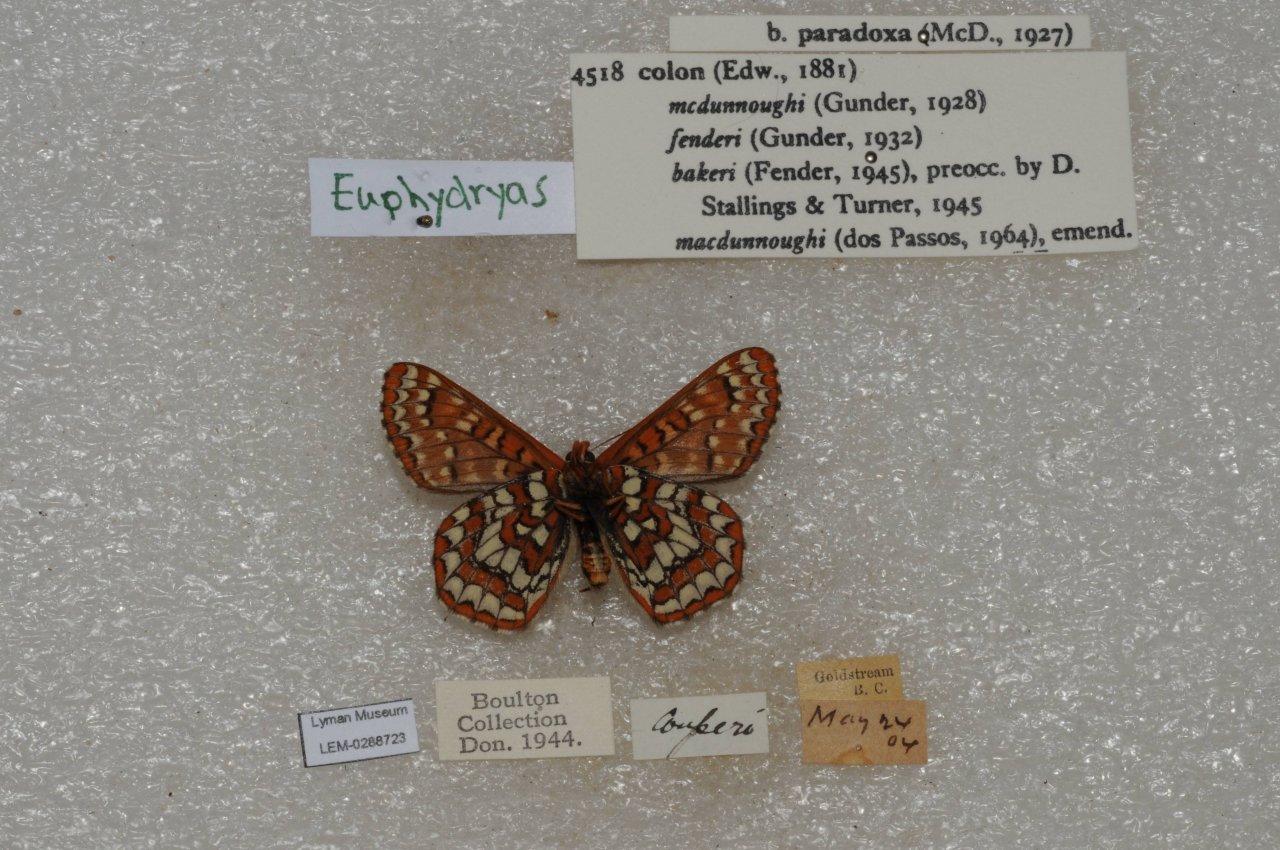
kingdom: Animalia
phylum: Arthropoda
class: Insecta
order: Lepidoptera
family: Nymphalidae
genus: Occidryas
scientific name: Occidryas colon
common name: Snowberry Checkerspot
